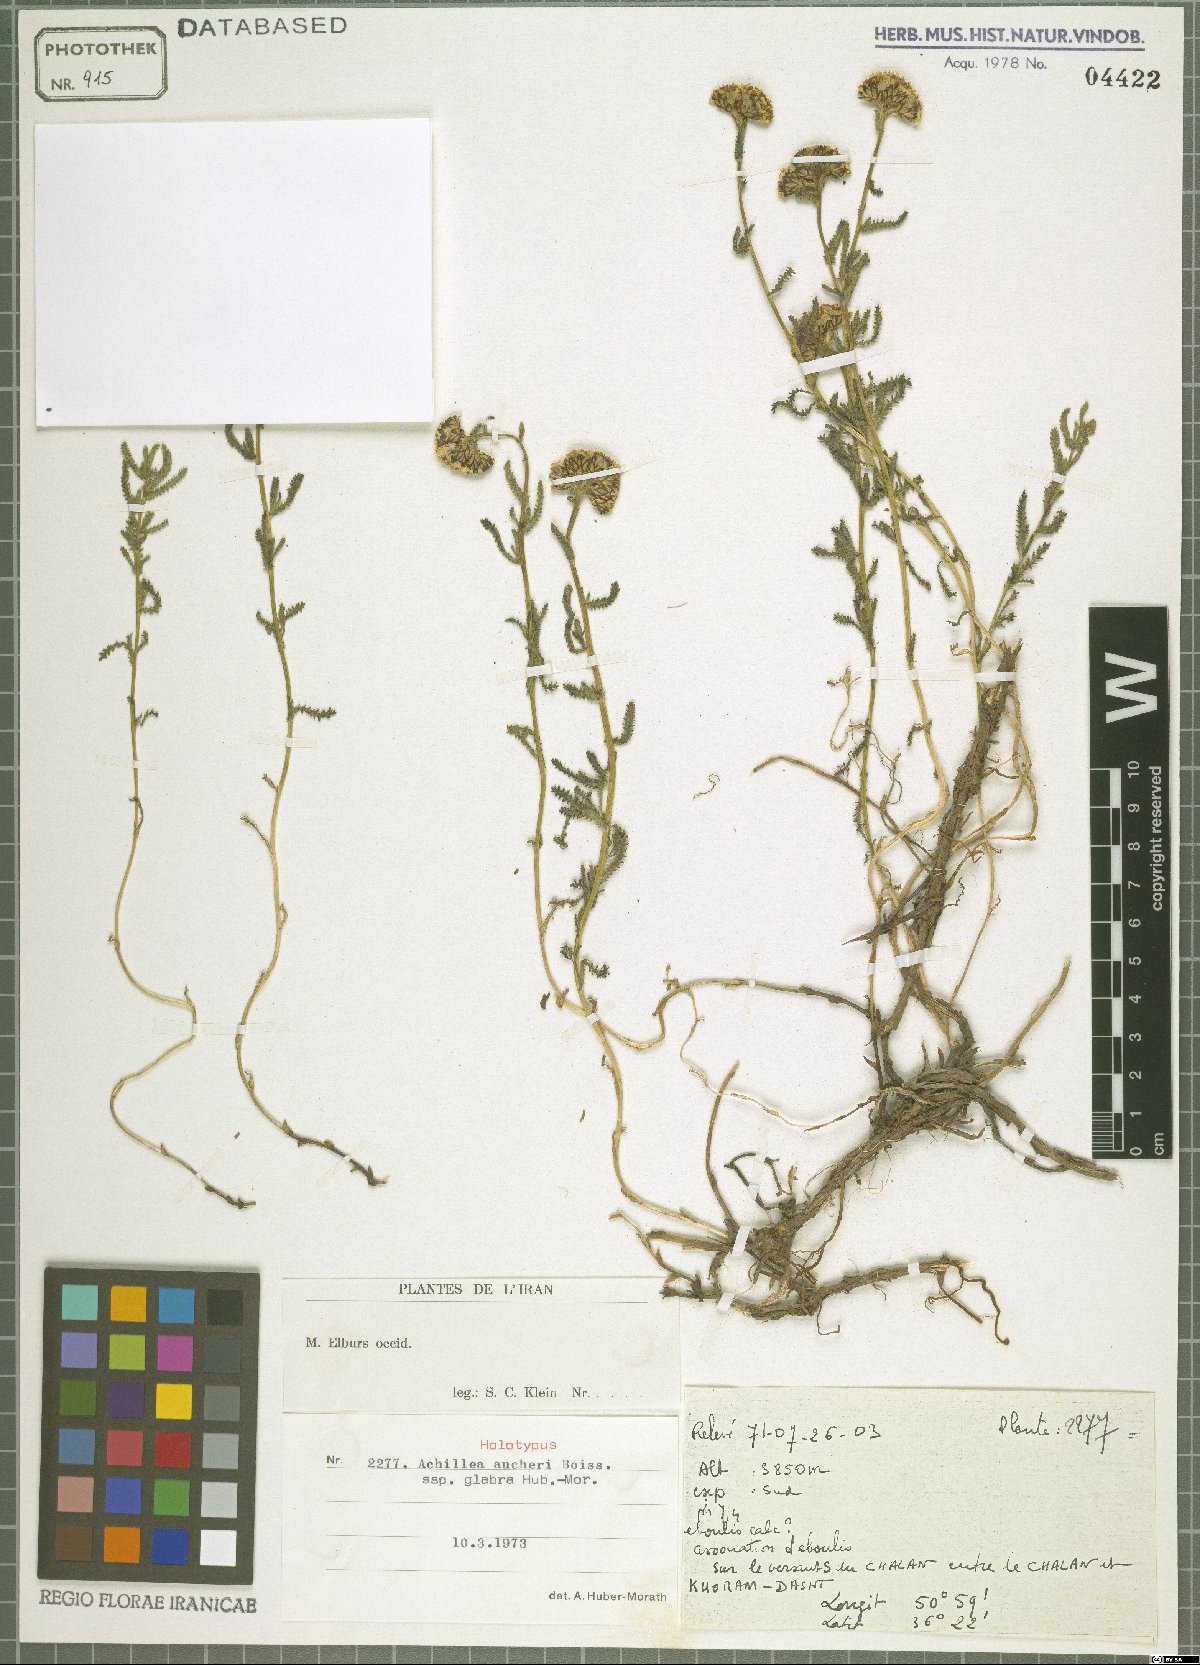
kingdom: Plantae
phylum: Tracheophyta
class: Magnoliopsida
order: Asterales
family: Asteraceae
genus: Achillea
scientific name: Achillea aucheri
